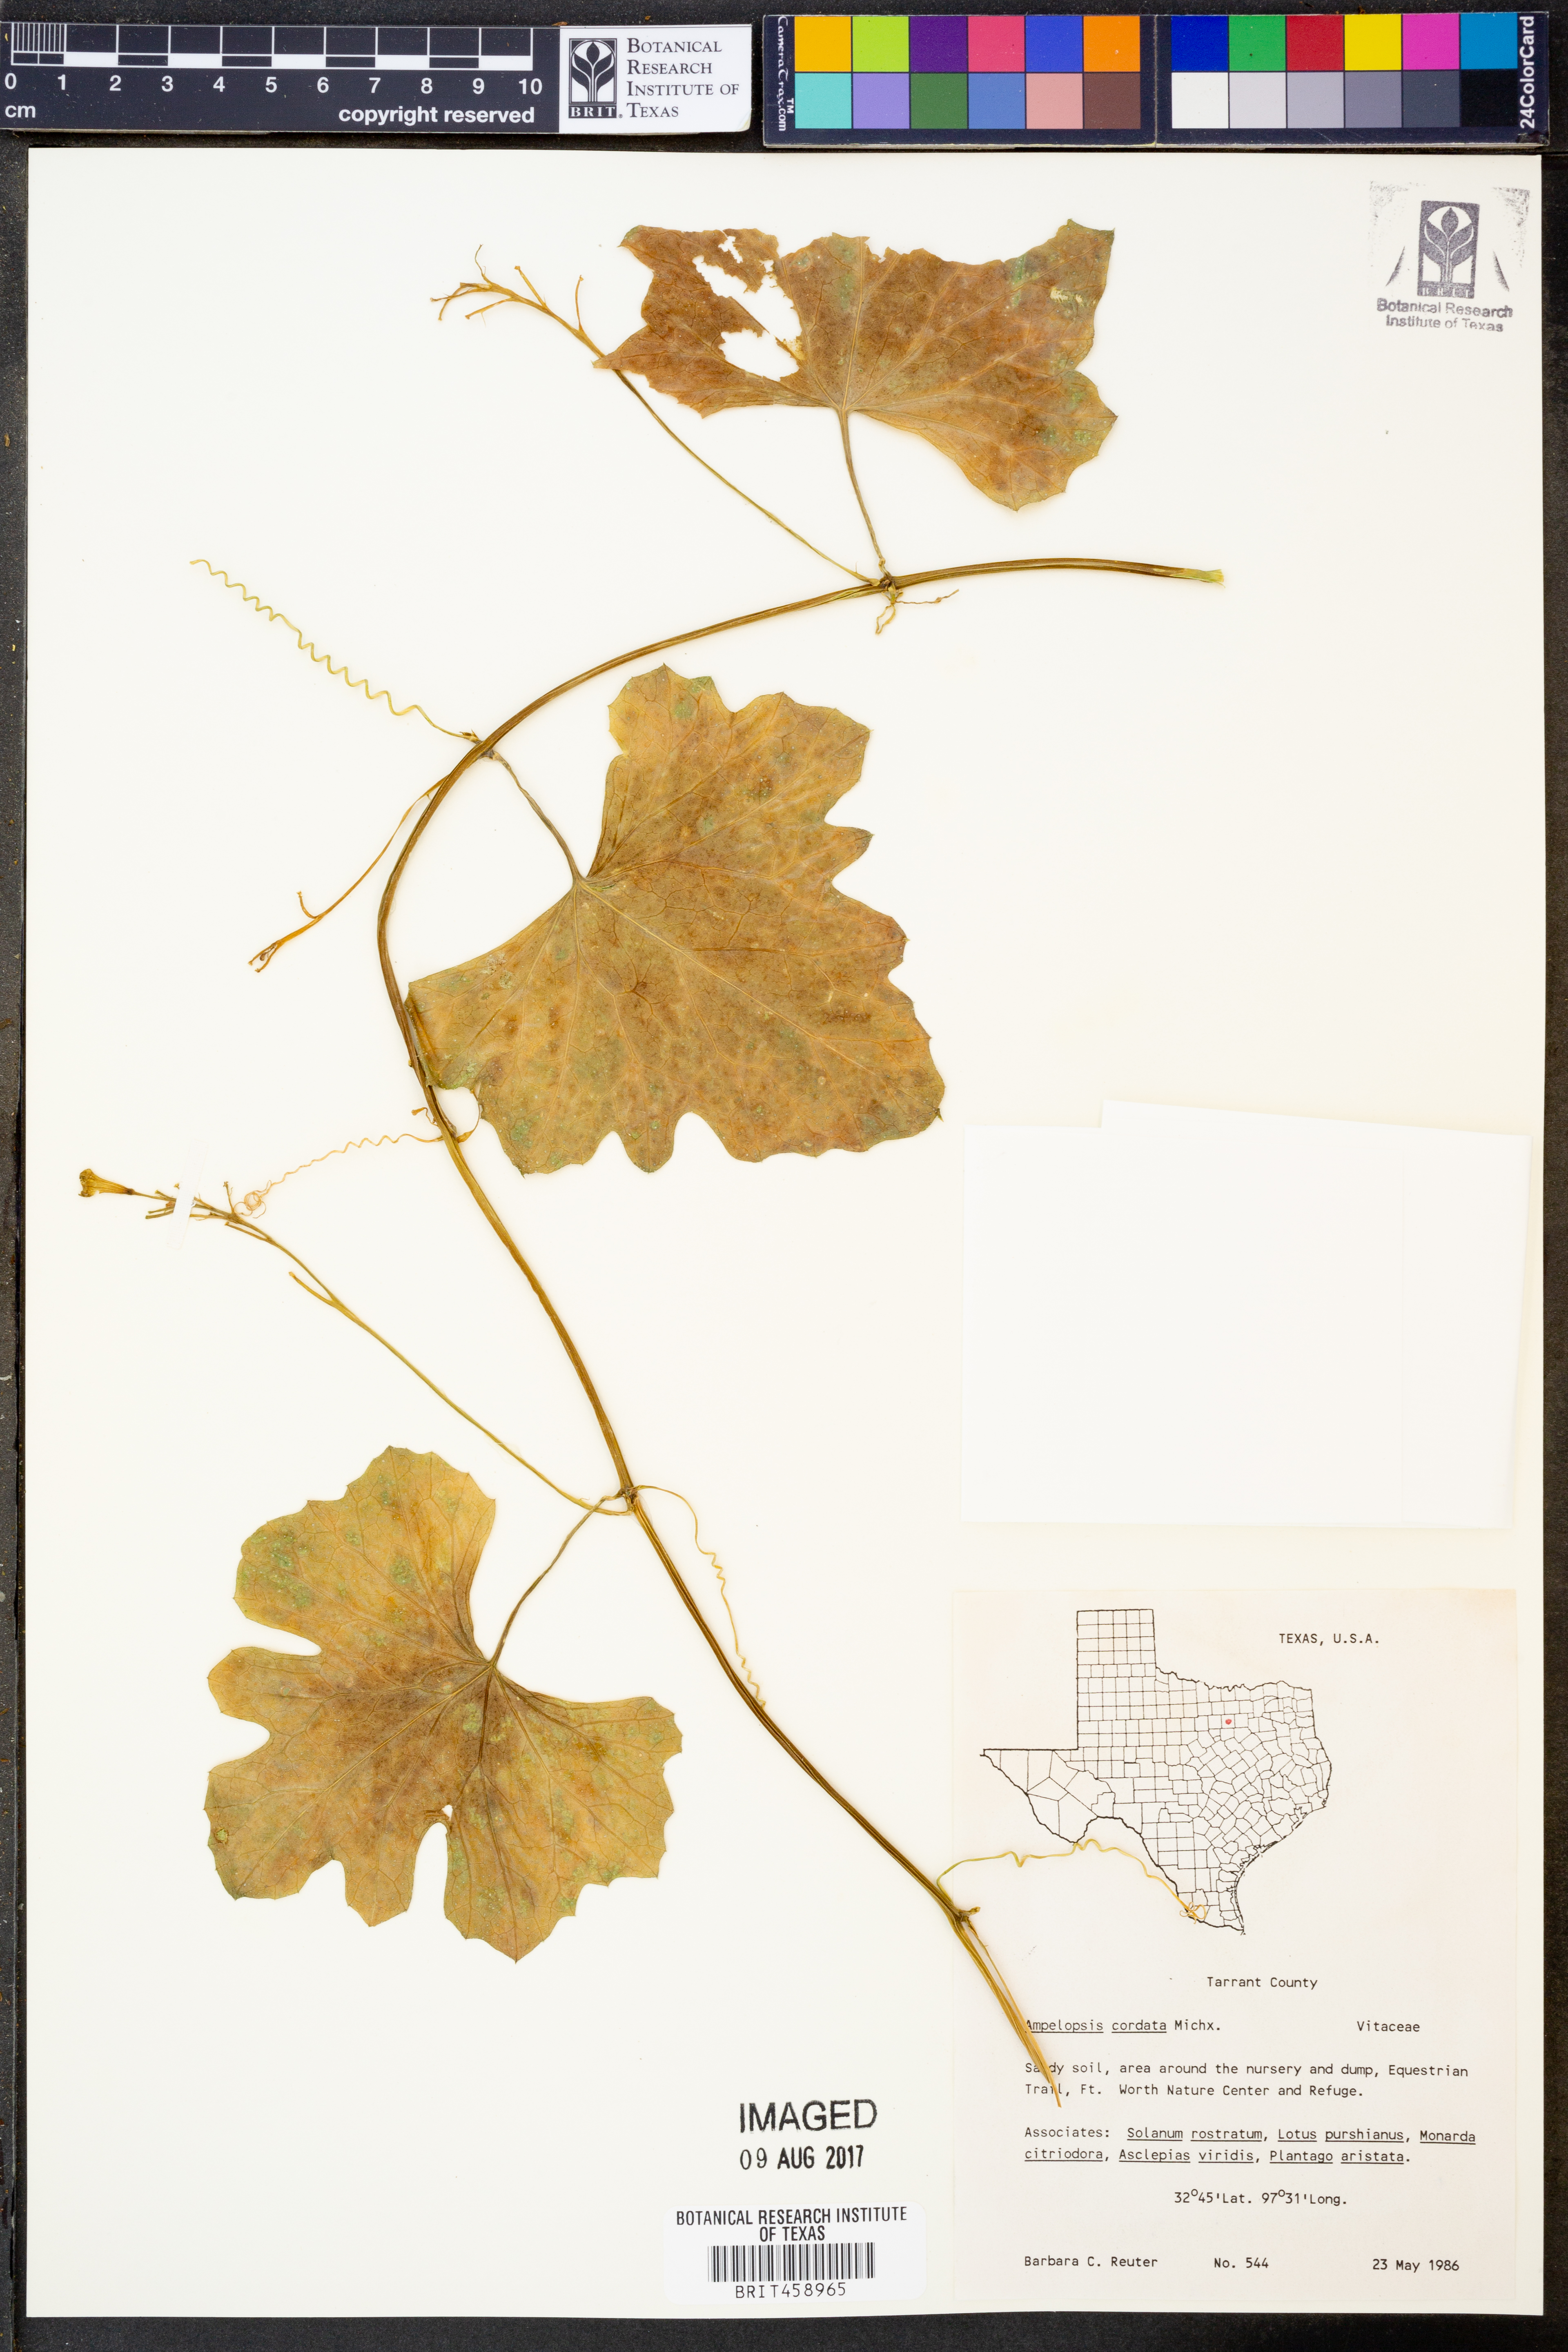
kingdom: Plantae
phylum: Tracheophyta
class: Magnoliopsida
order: Vitales
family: Vitaceae
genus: Ampelopsis
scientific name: Ampelopsis cordata
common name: Heart-leaf ampelopsis
